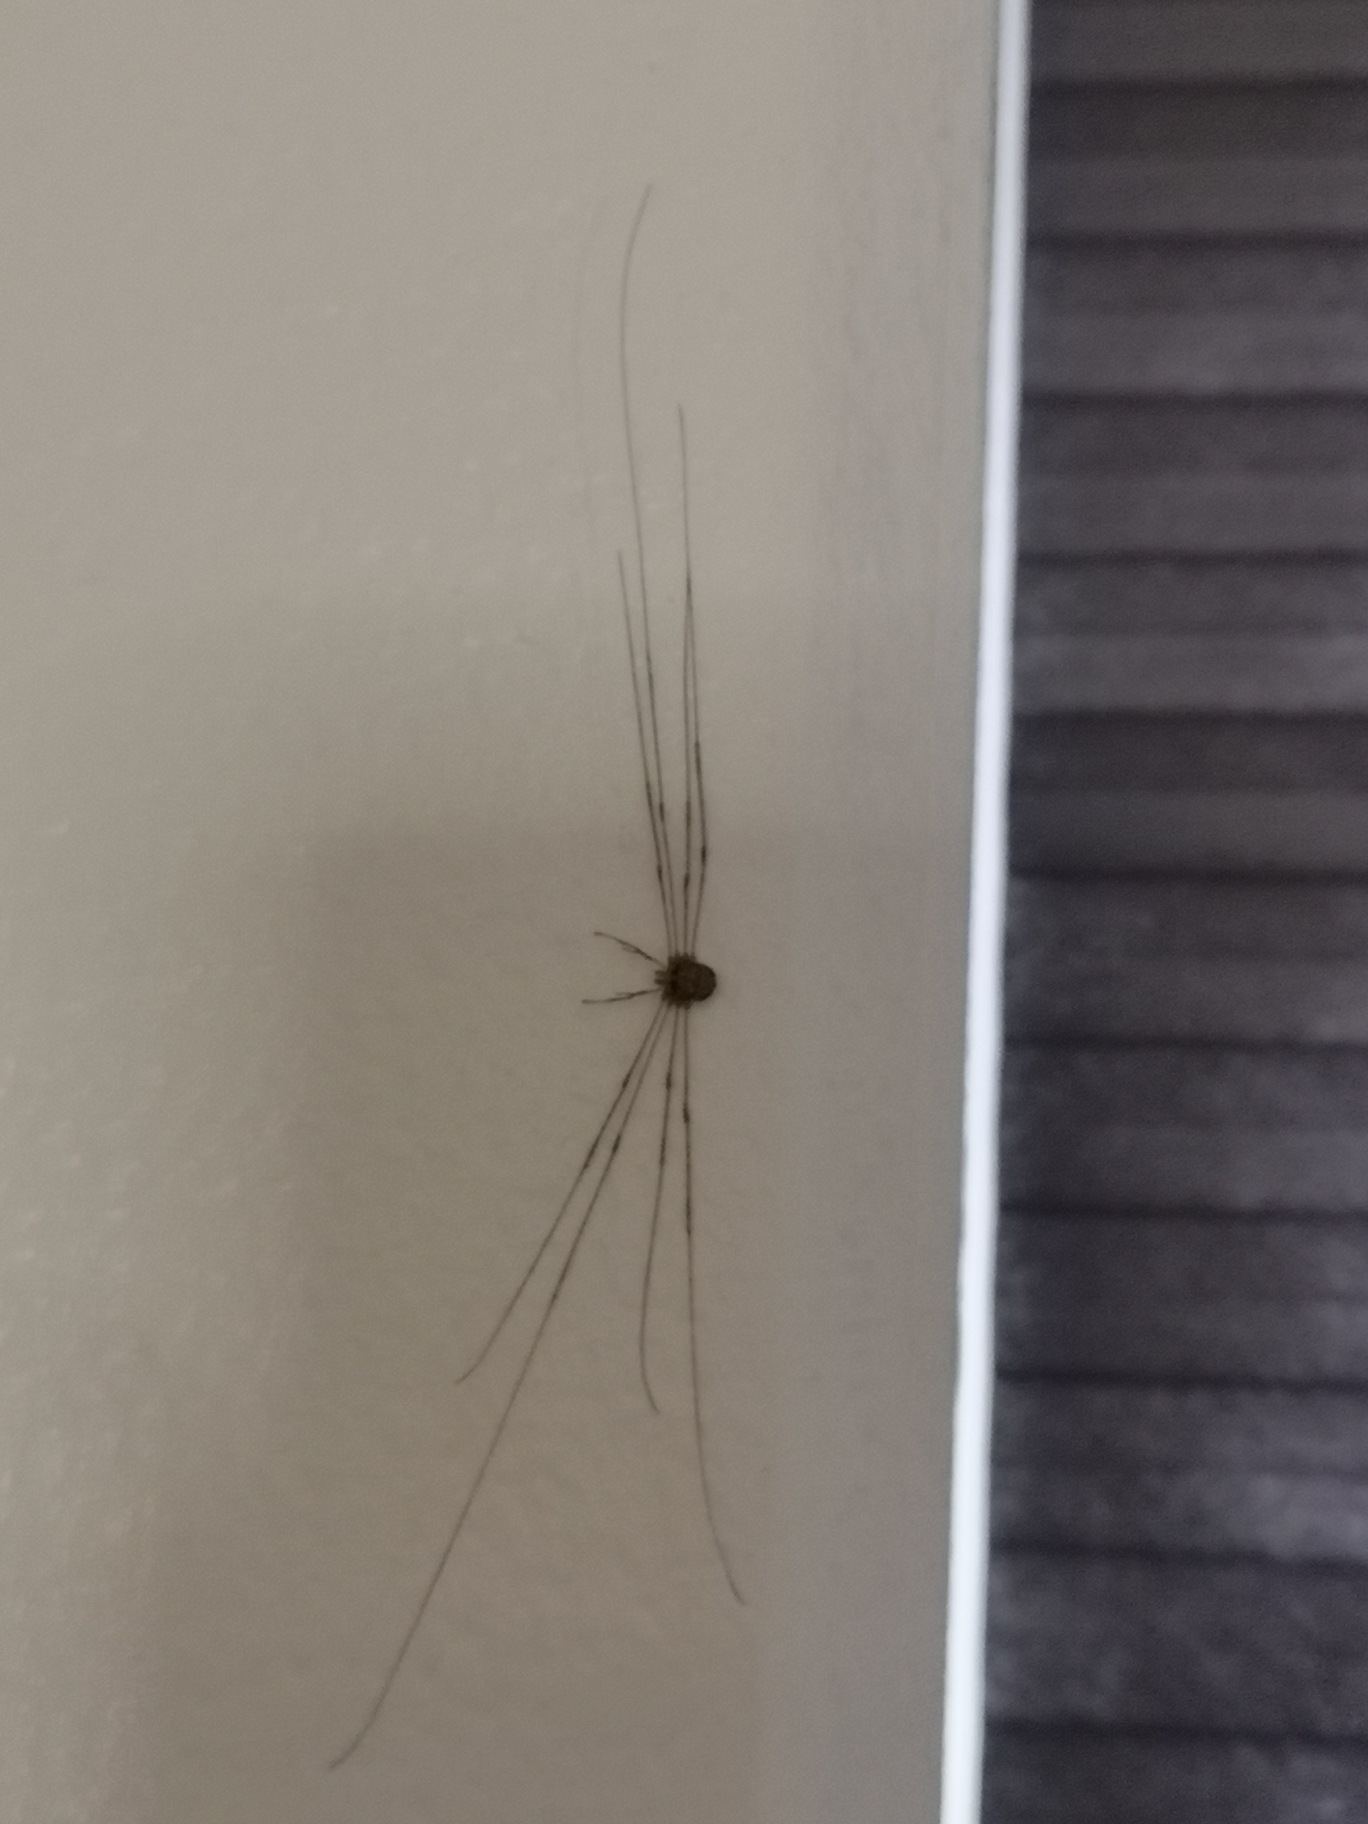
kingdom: Animalia
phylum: Arthropoda
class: Arachnida
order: Opiliones
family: Phalangiidae
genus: Dicranopalpus
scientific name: Dicranopalpus ramosus
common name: Gaffelmejer
